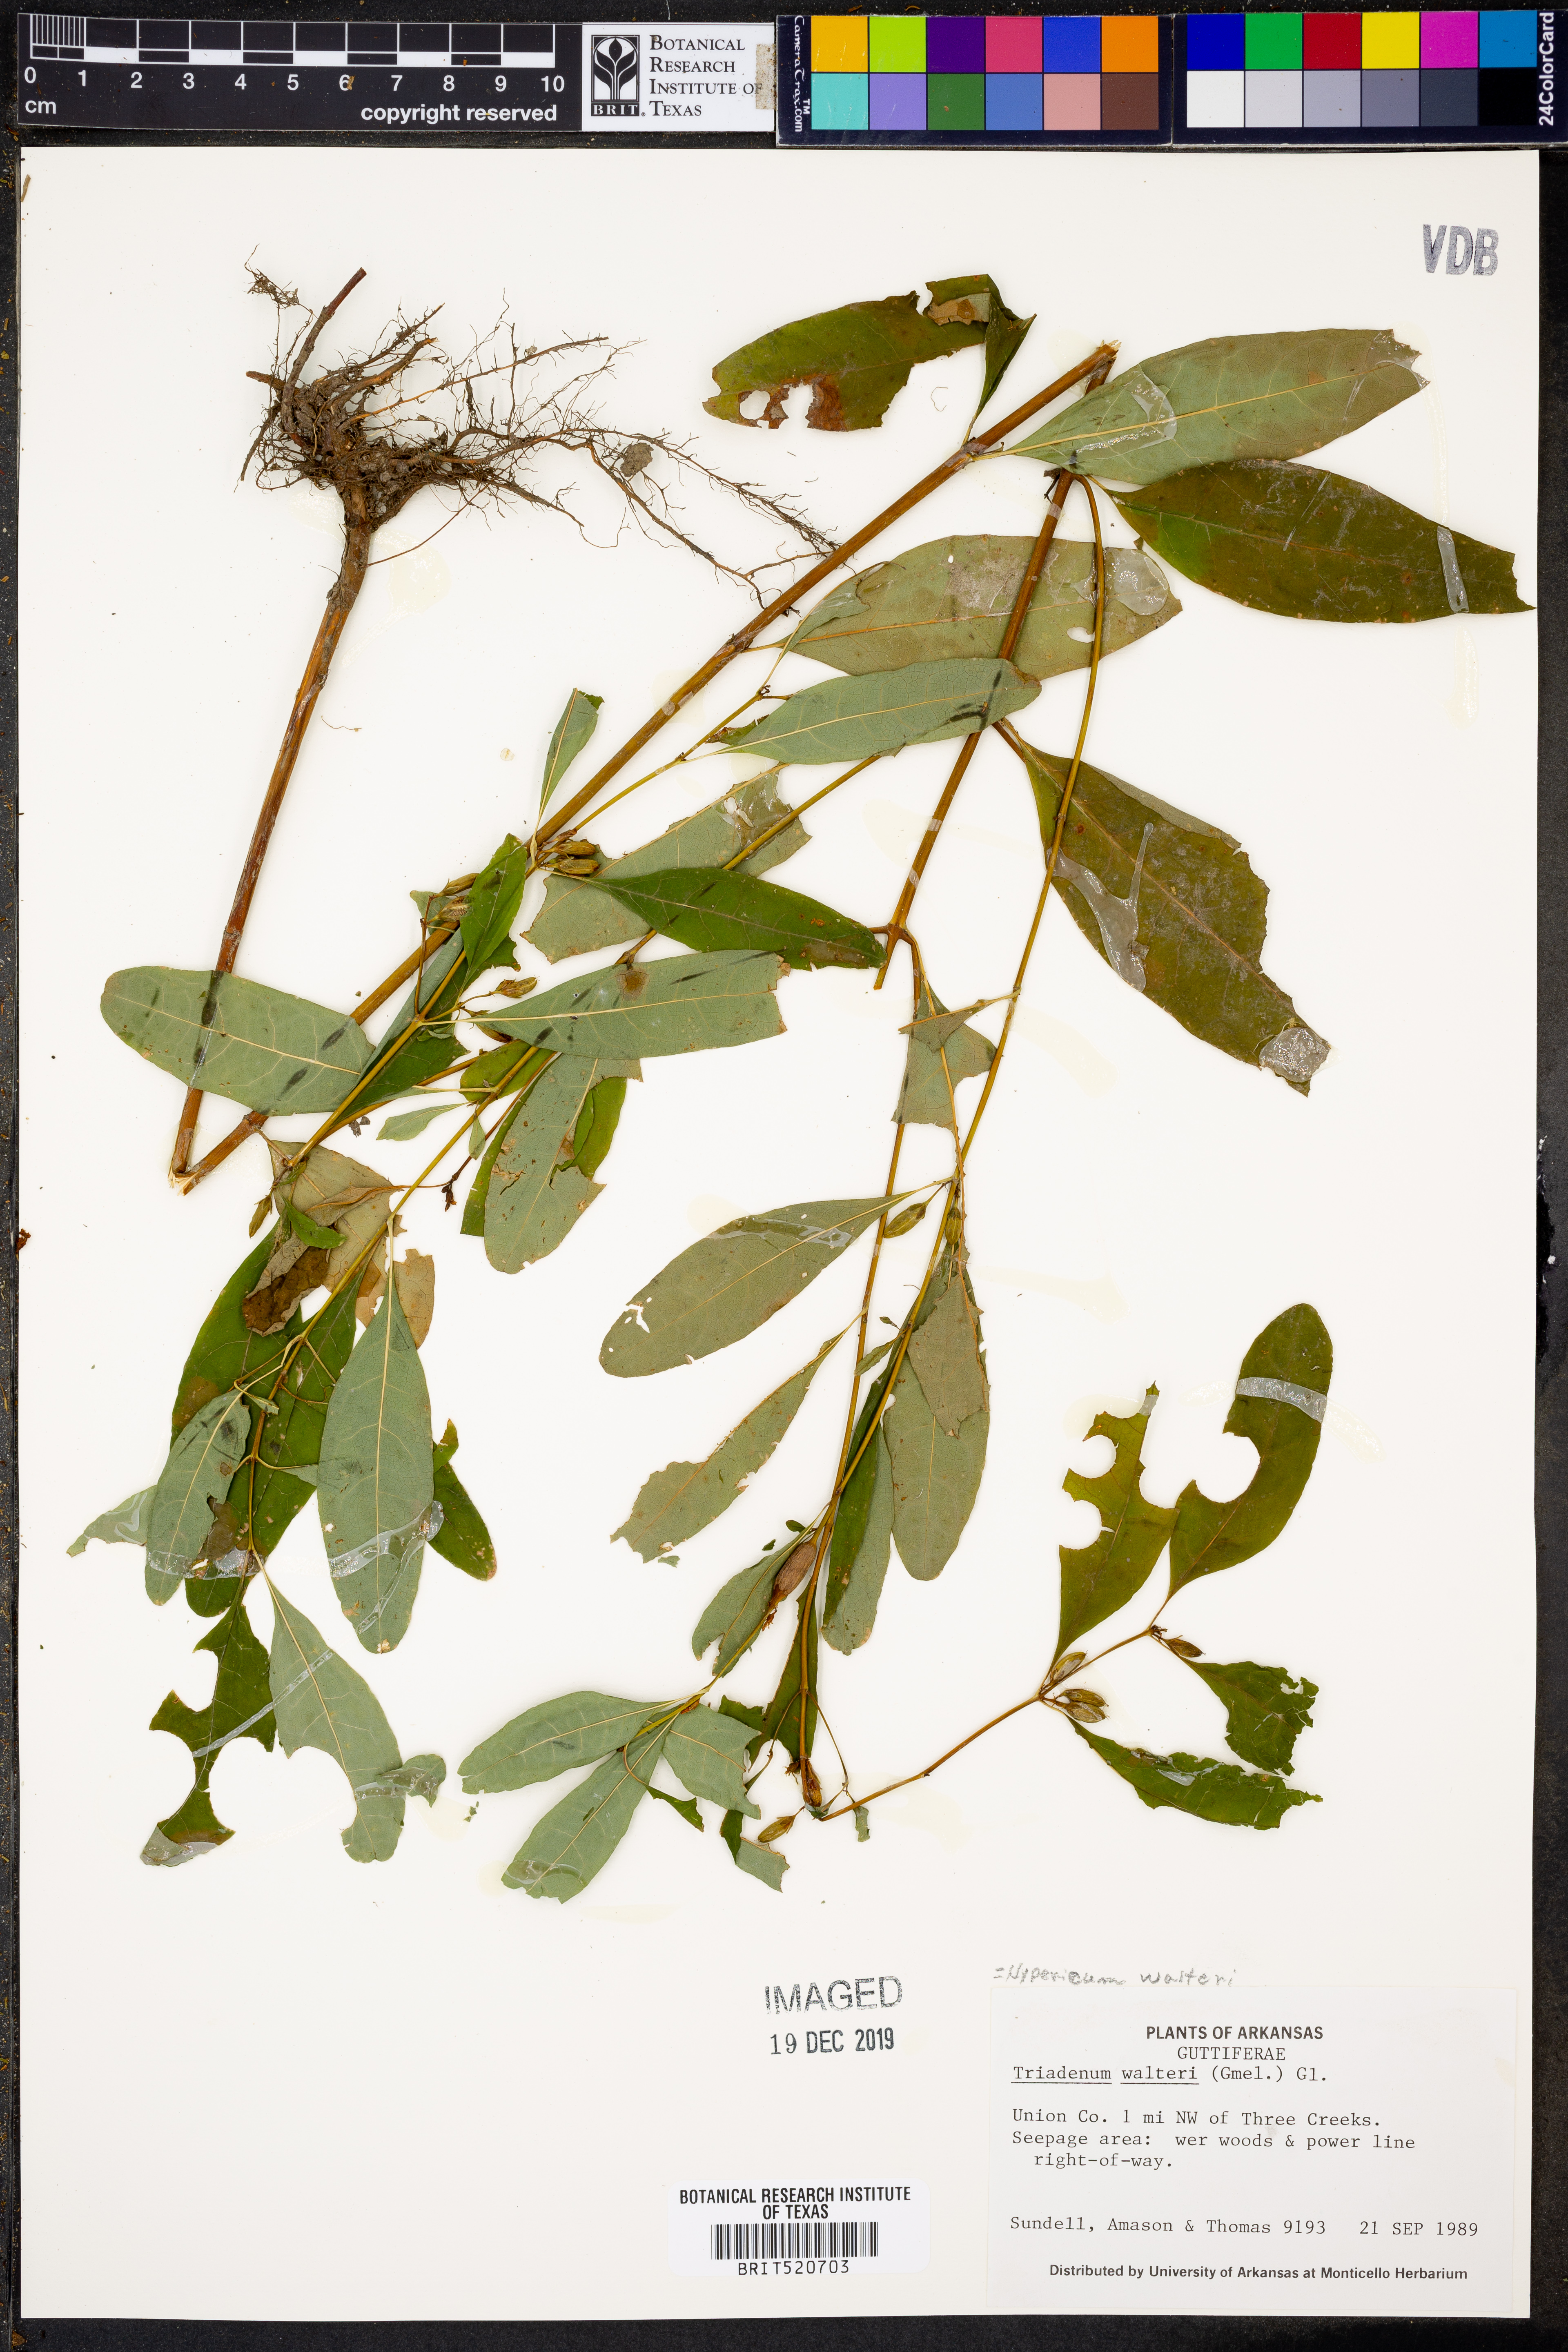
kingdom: Plantae
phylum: Tracheophyta
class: Magnoliopsida
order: Malpighiales
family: Hypericaceae
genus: Triadenum
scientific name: Triadenum walteri
